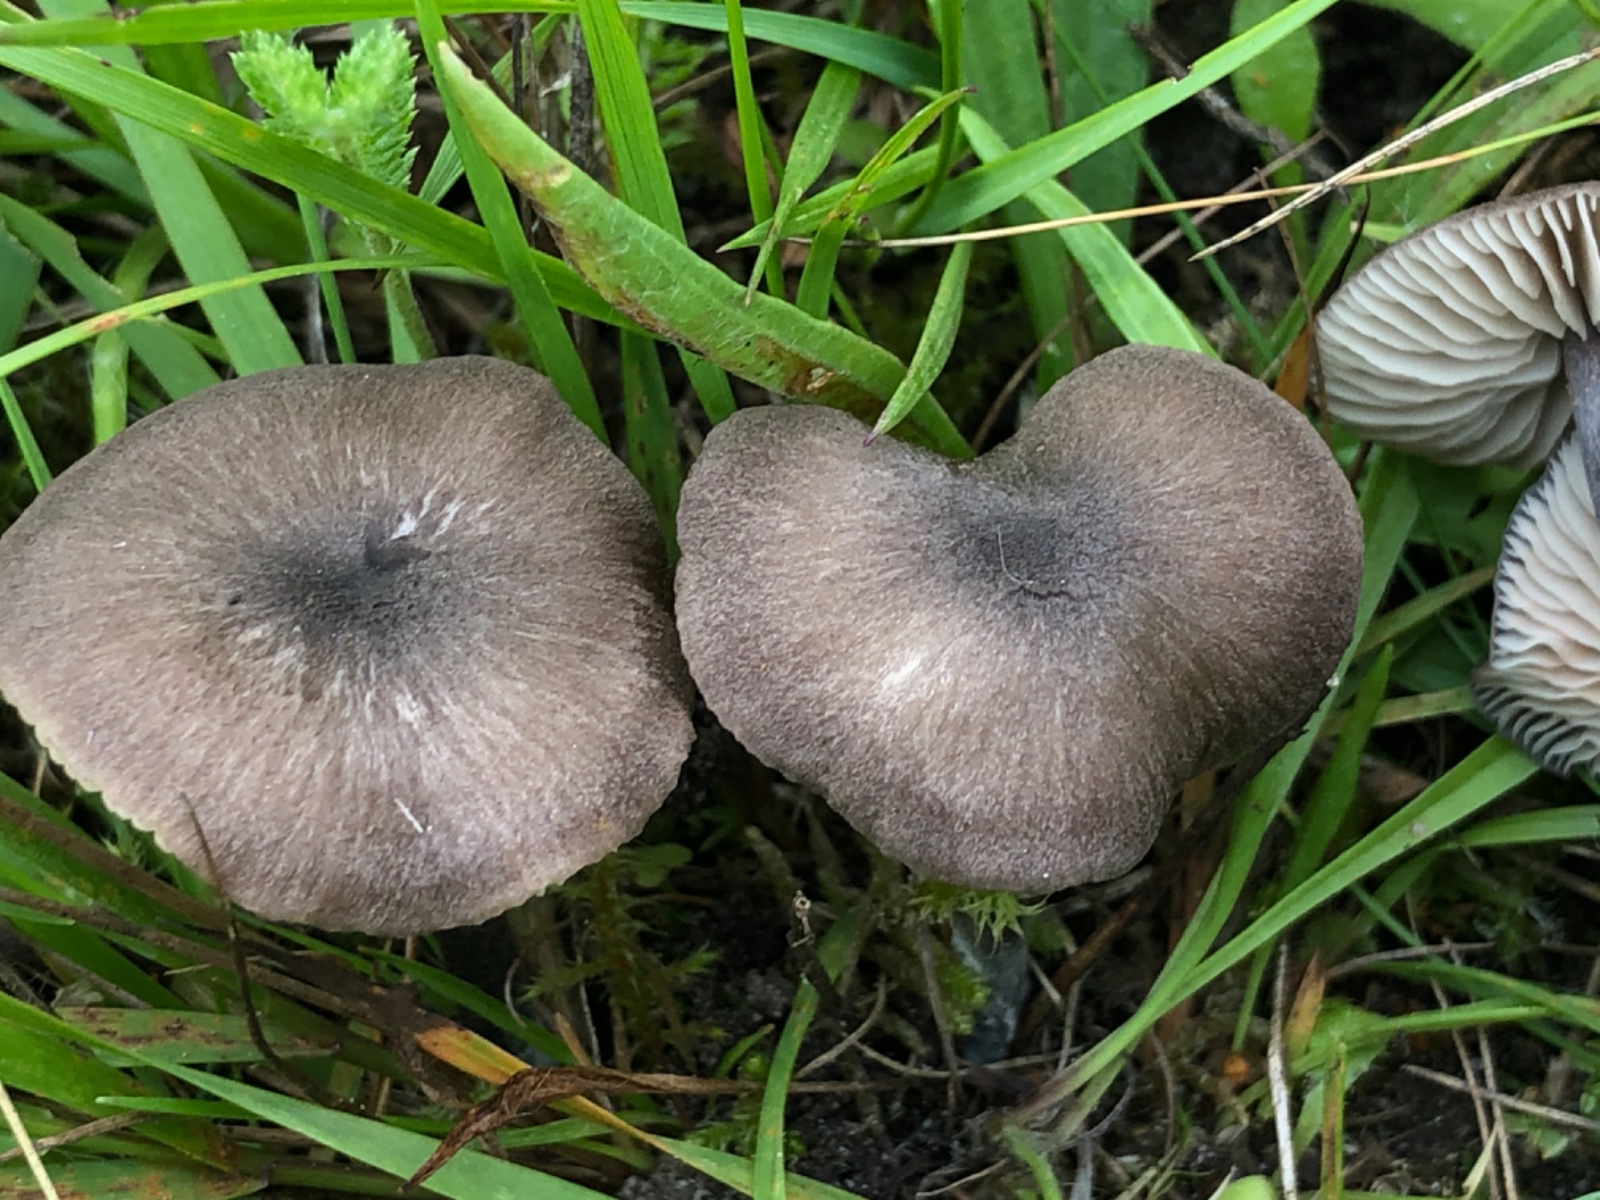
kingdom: Fungi
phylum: Basidiomycota
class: Agaricomycetes
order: Agaricales
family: Entolomataceae
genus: Entoloma
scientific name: Entoloma
